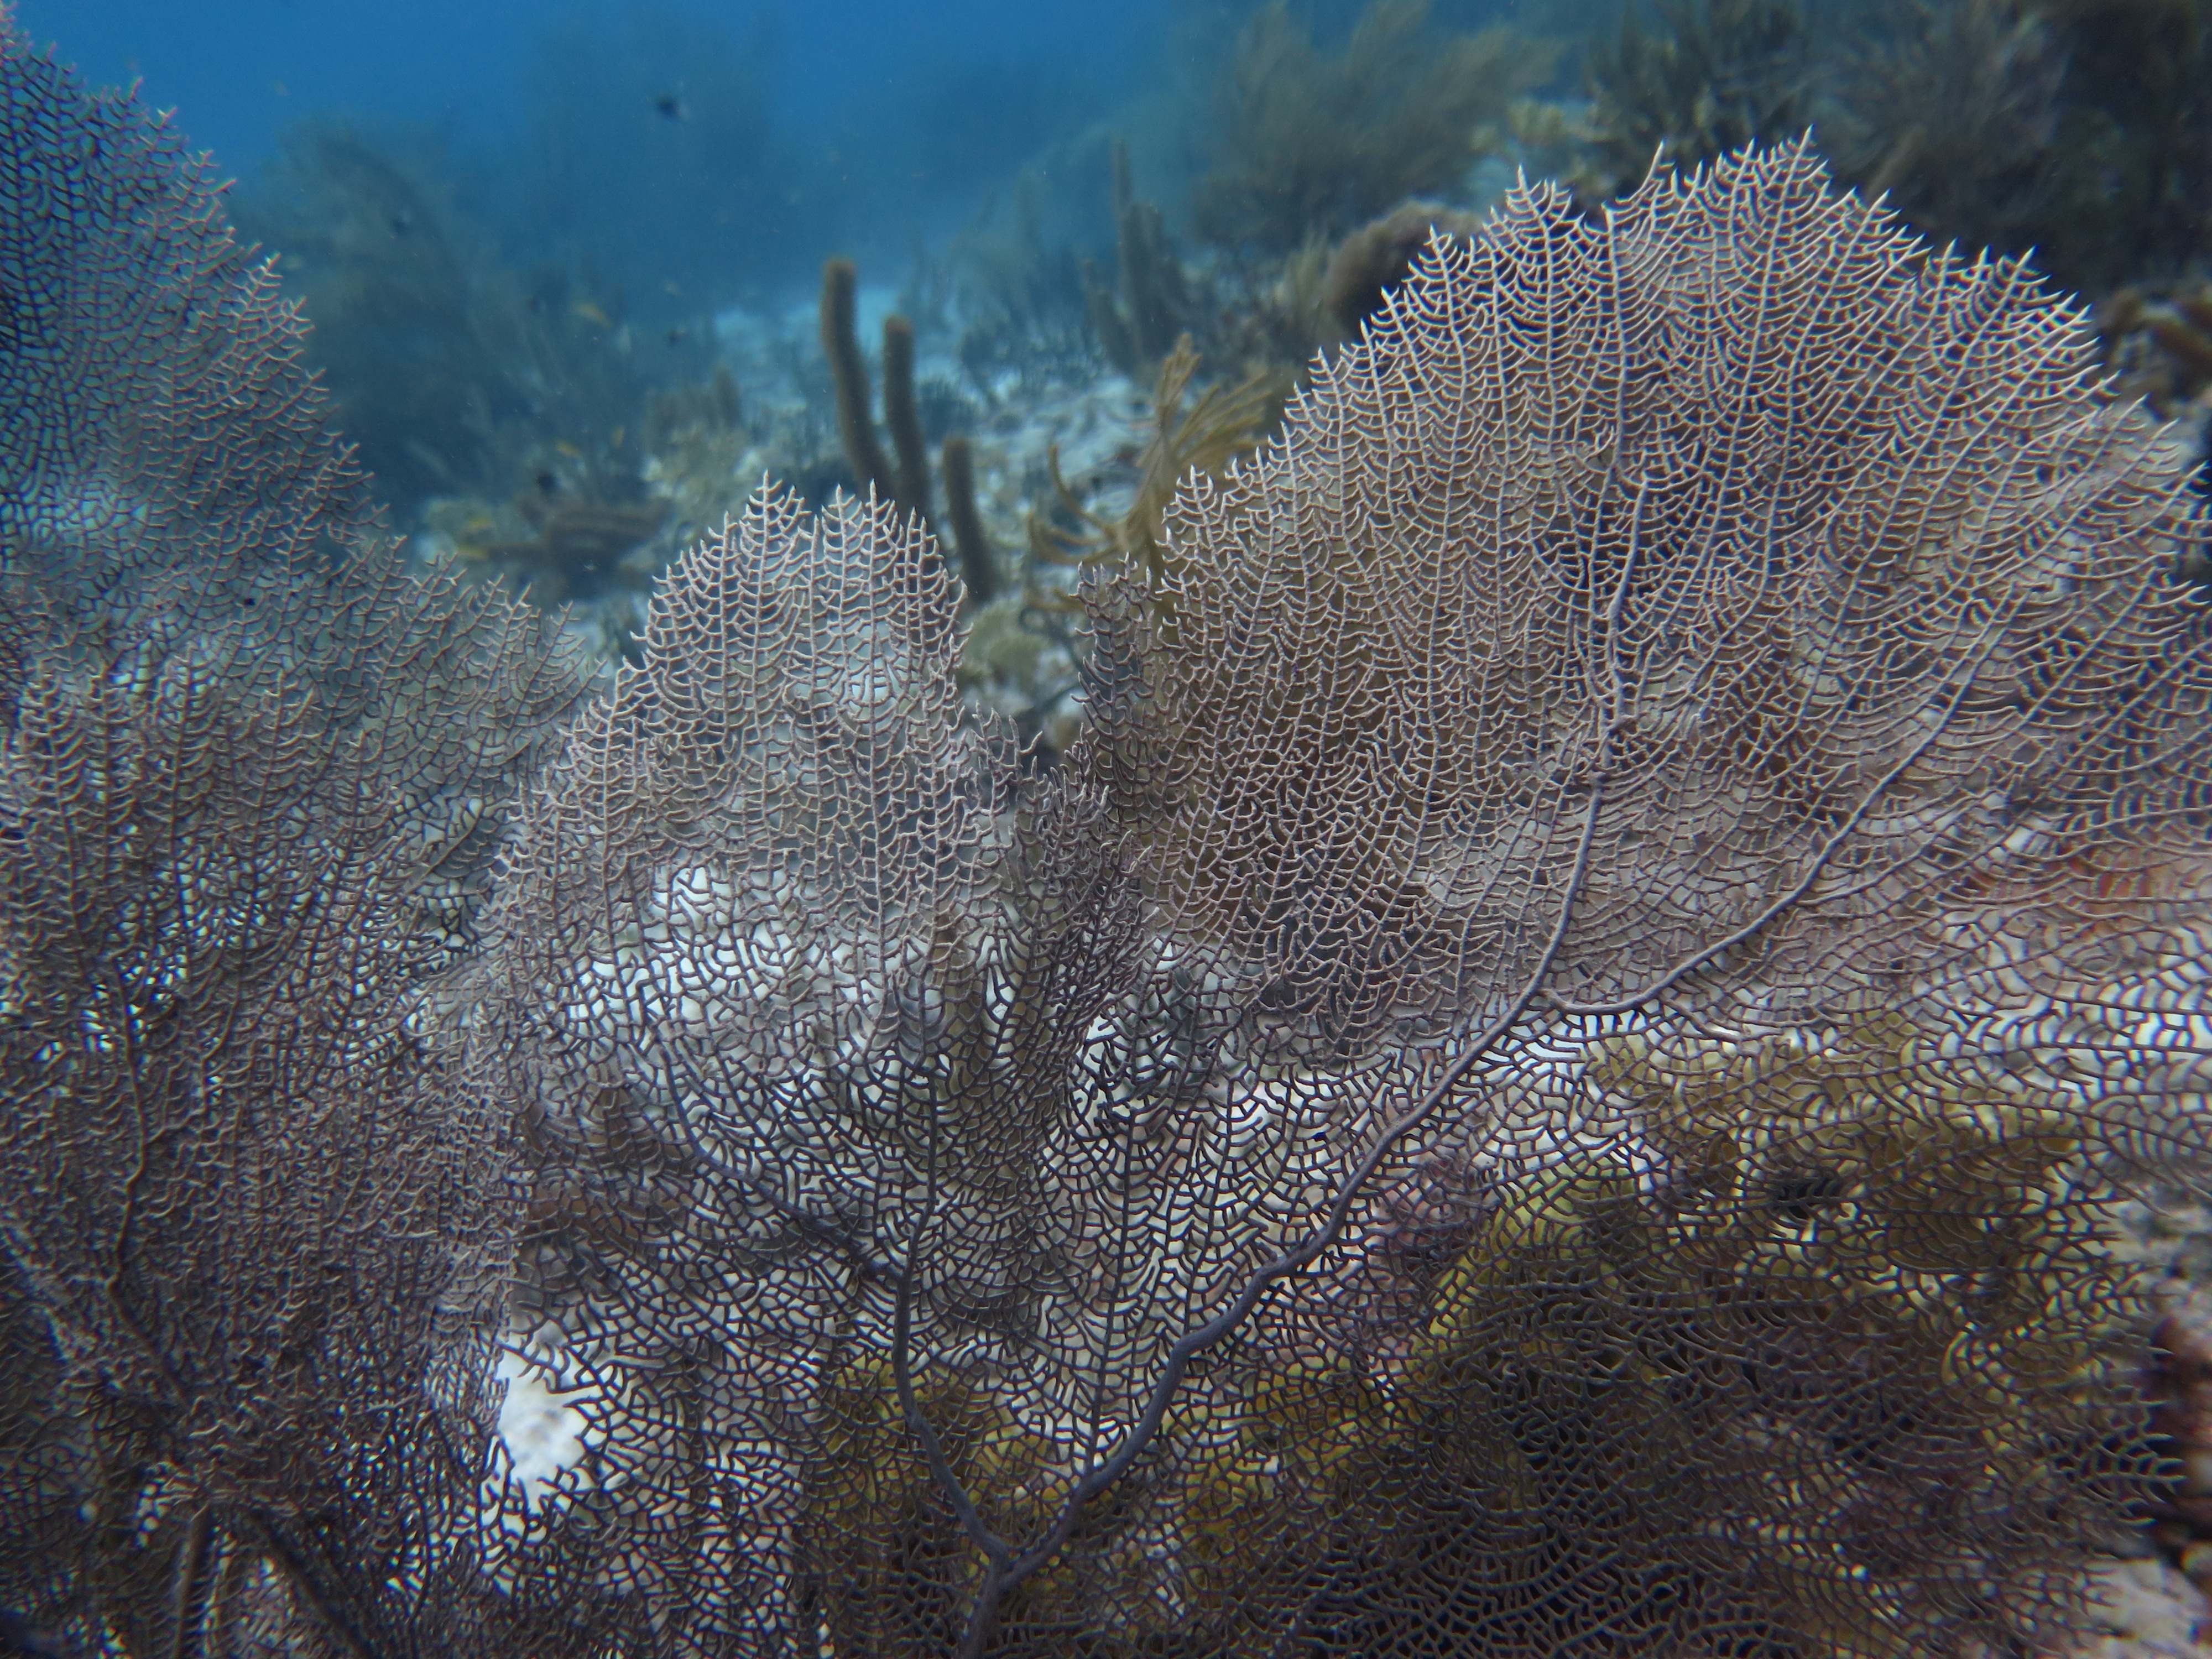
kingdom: Animalia
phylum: Cnidaria
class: Anthozoa
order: Malacalcyonacea
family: Gorgoniidae
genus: Gorgonia
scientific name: Gorgonia ventalina
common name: Common sea fan
